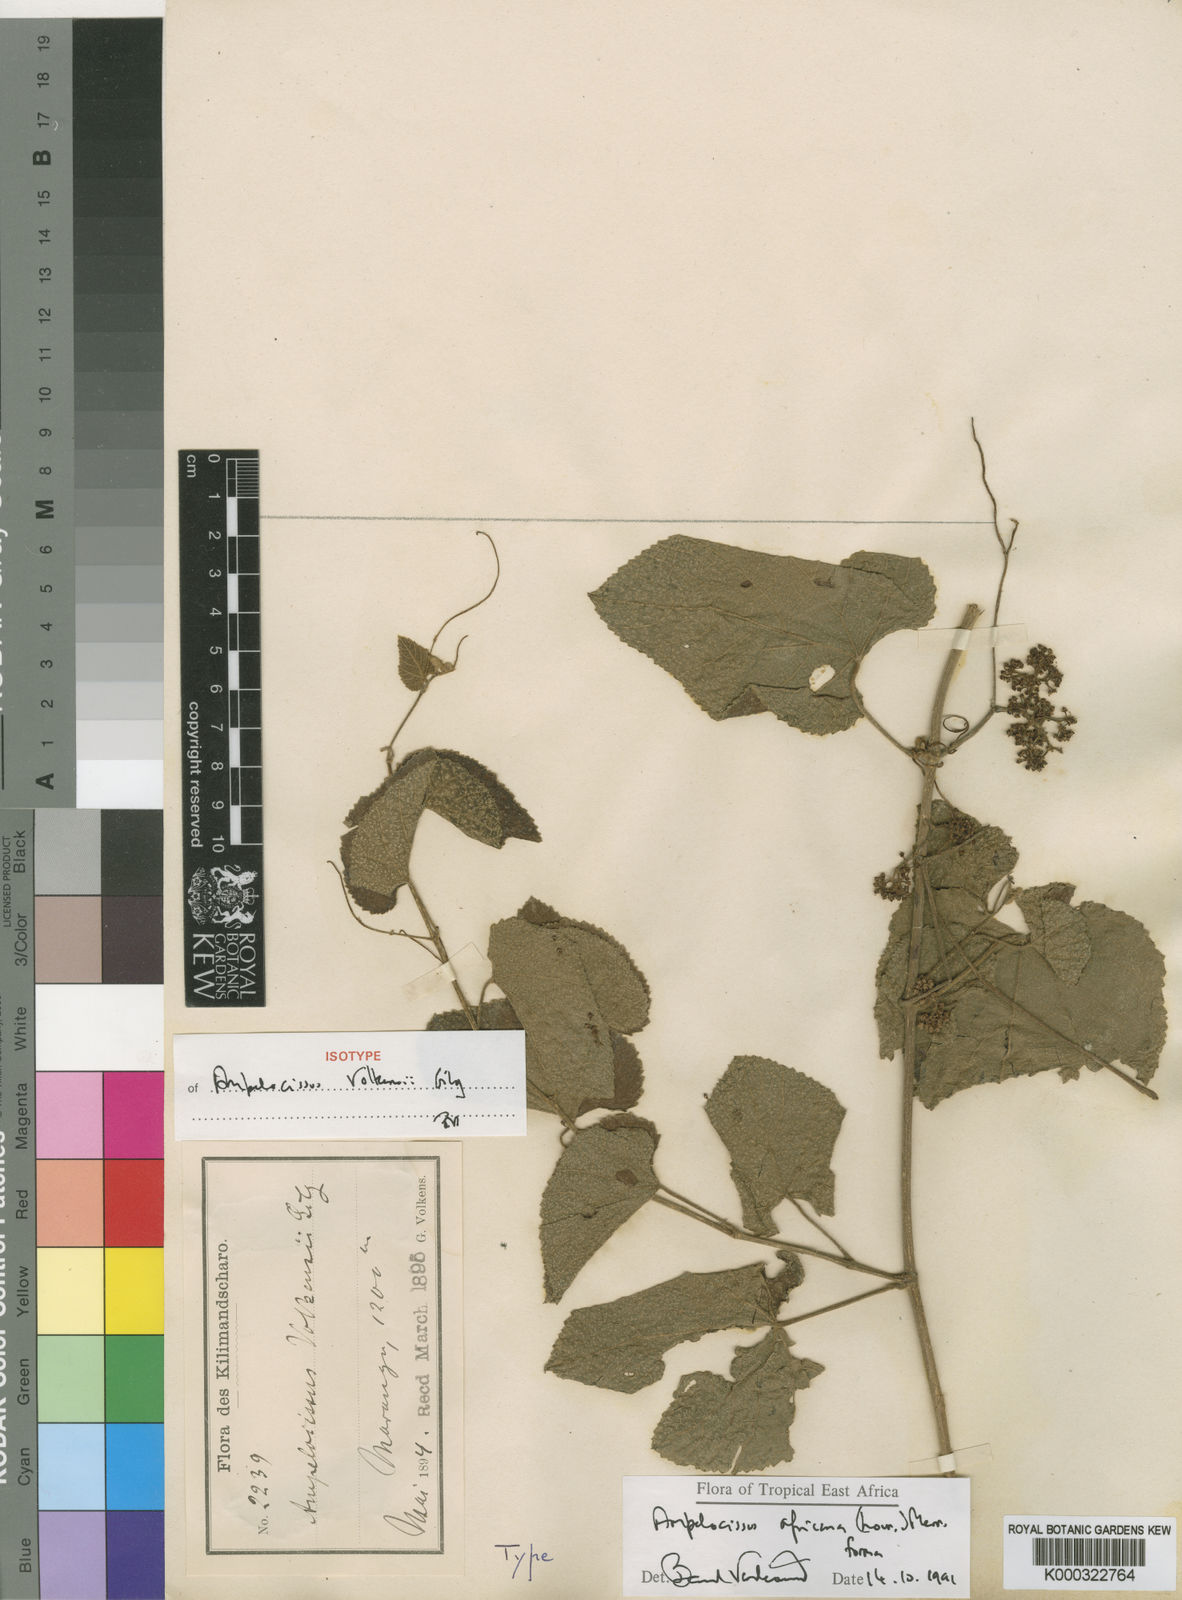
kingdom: Plantae
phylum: Tracheophyta
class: Magnoliopsida
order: Vitales
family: Vitaceae
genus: Ampelocissus
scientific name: Ampelocissus africana
